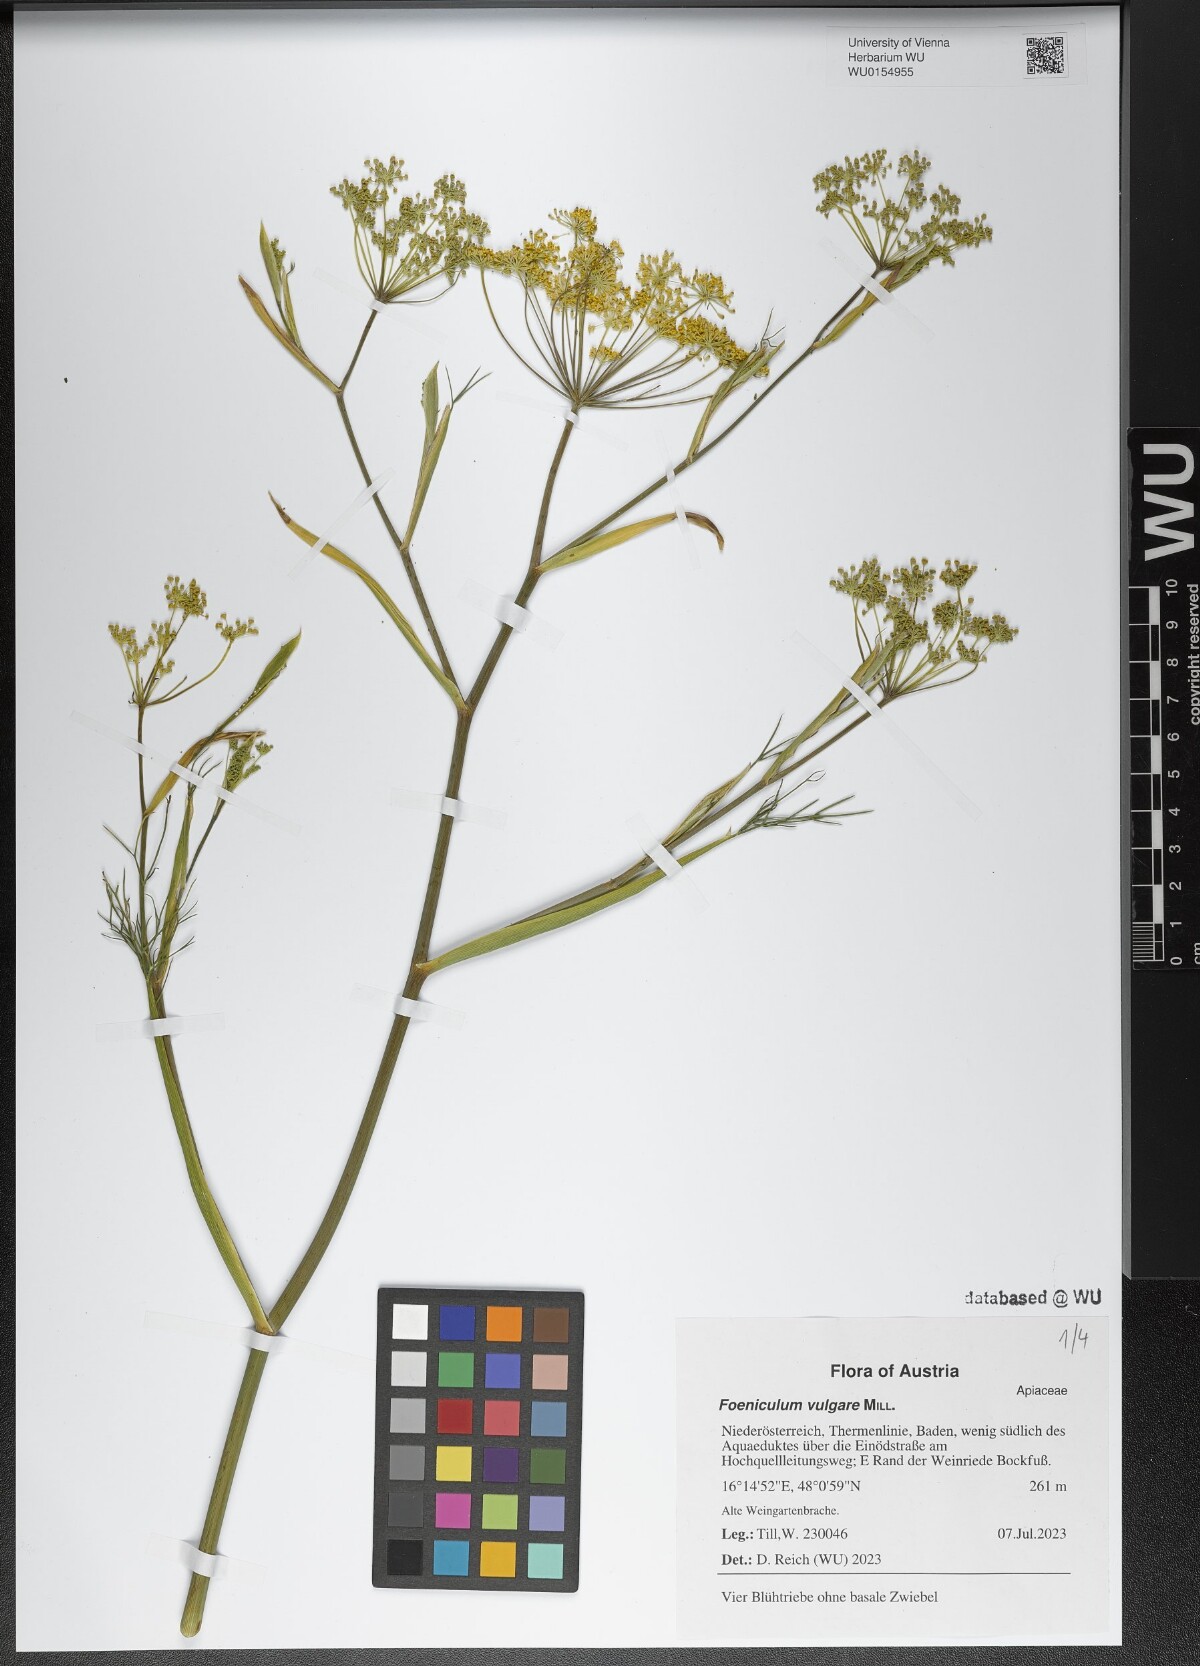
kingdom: Plantae
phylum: Tracheophyta
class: Magnoliopsida
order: Apiales
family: Apiaceae
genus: Foeniculum
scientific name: Foeniculum vulgare
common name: Fennel
